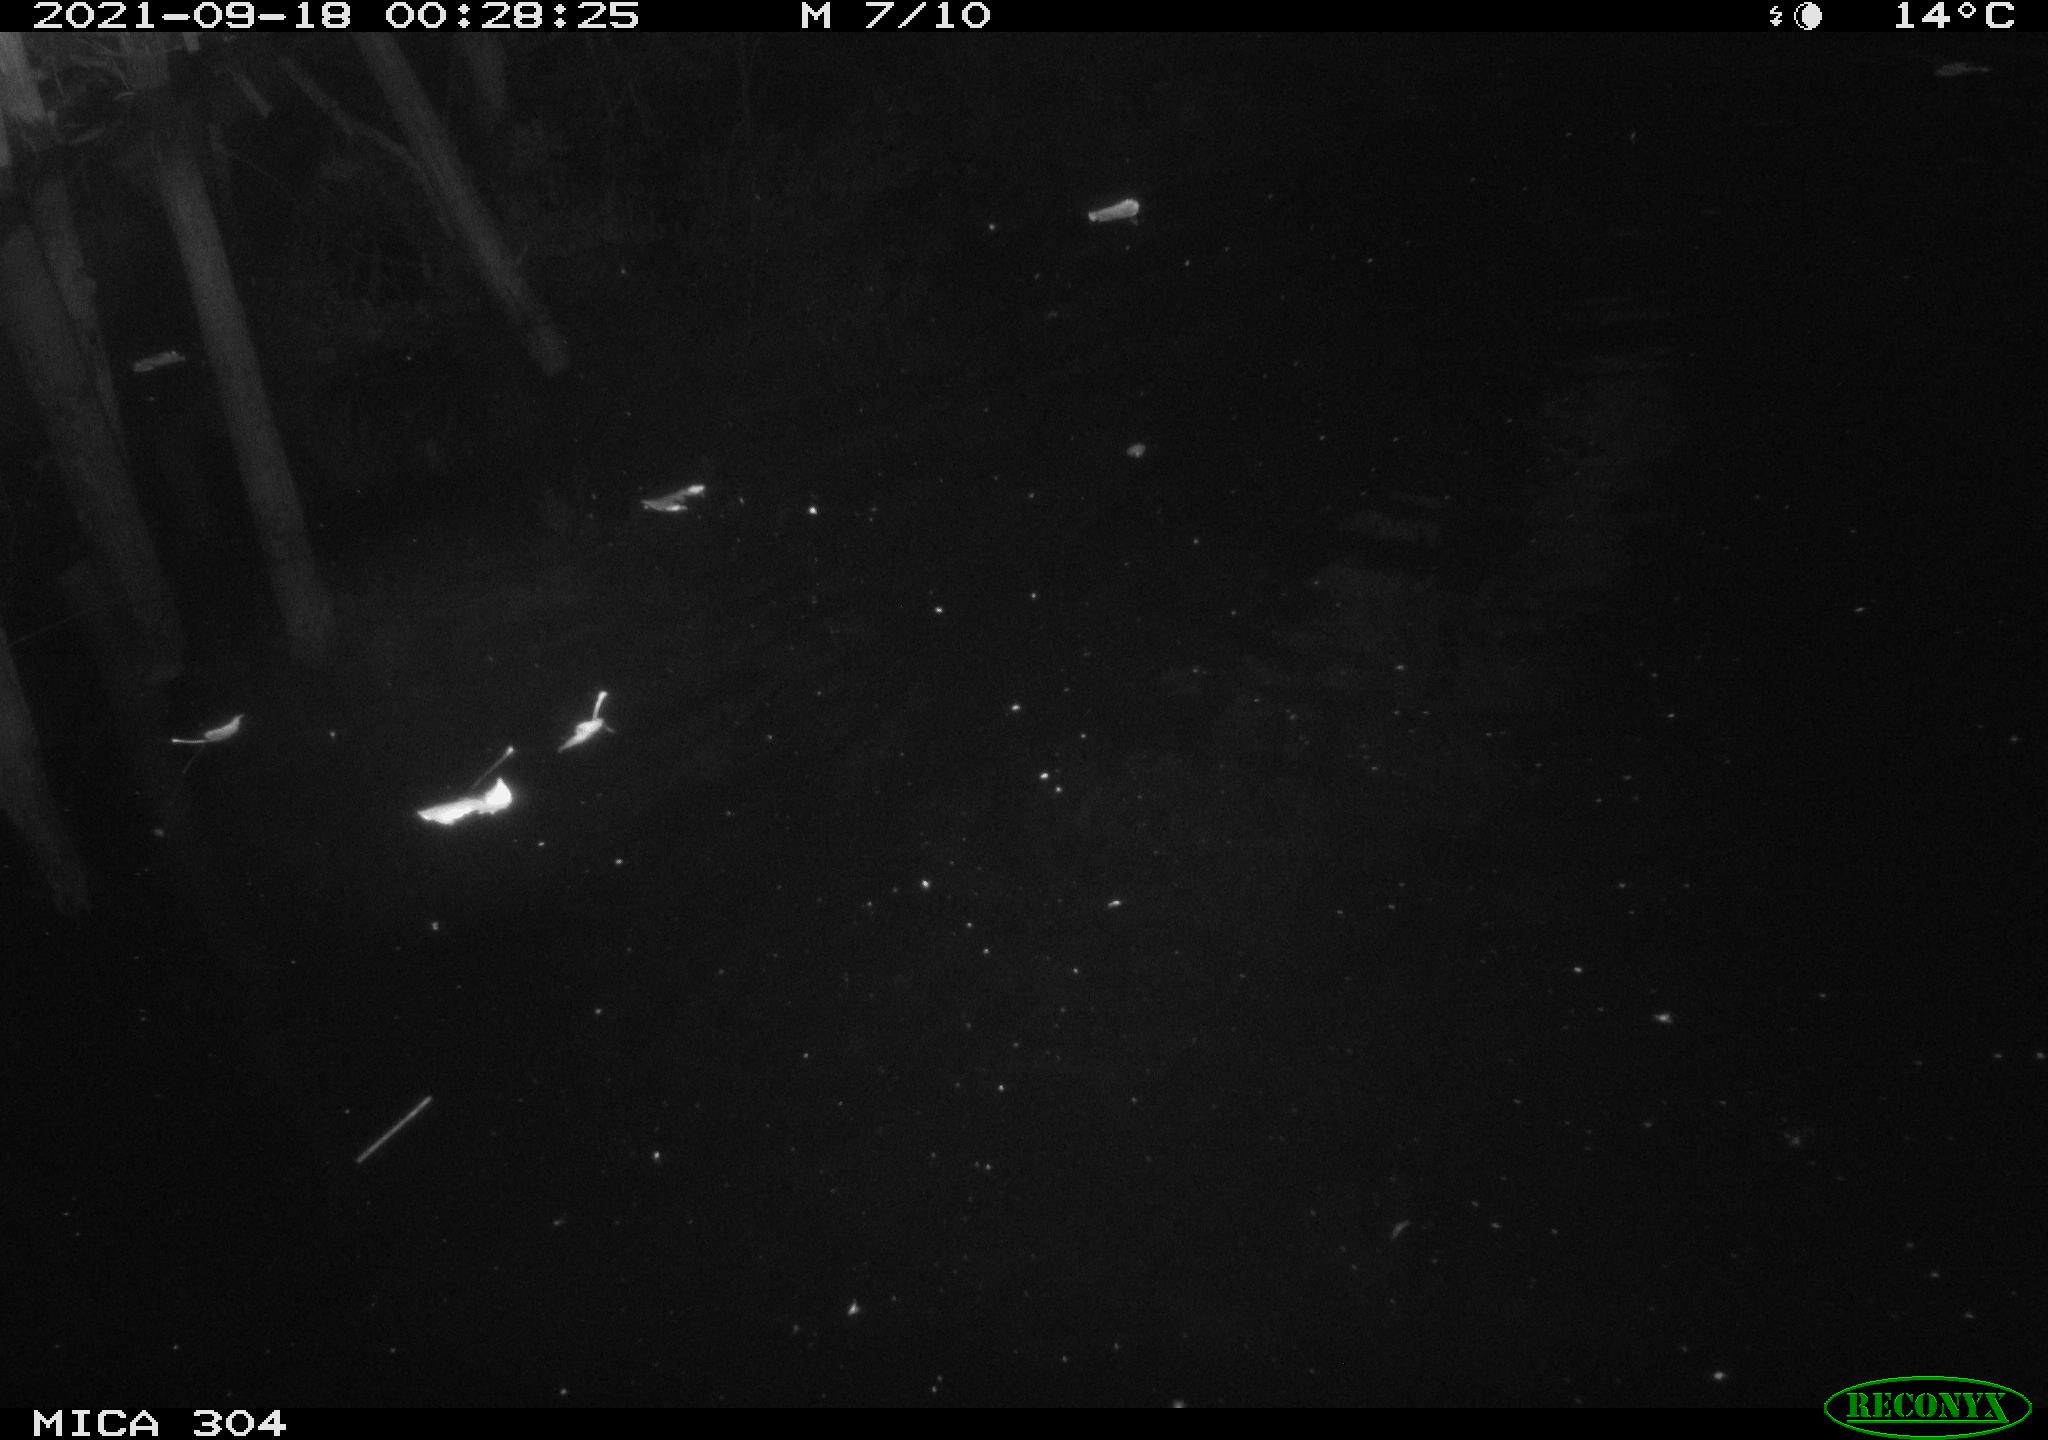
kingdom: Animalia
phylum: Chordata
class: Mammalia
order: Rodentia
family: Cricetidae
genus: Ondatra
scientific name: Ondatra zibethicus
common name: Muskrat
